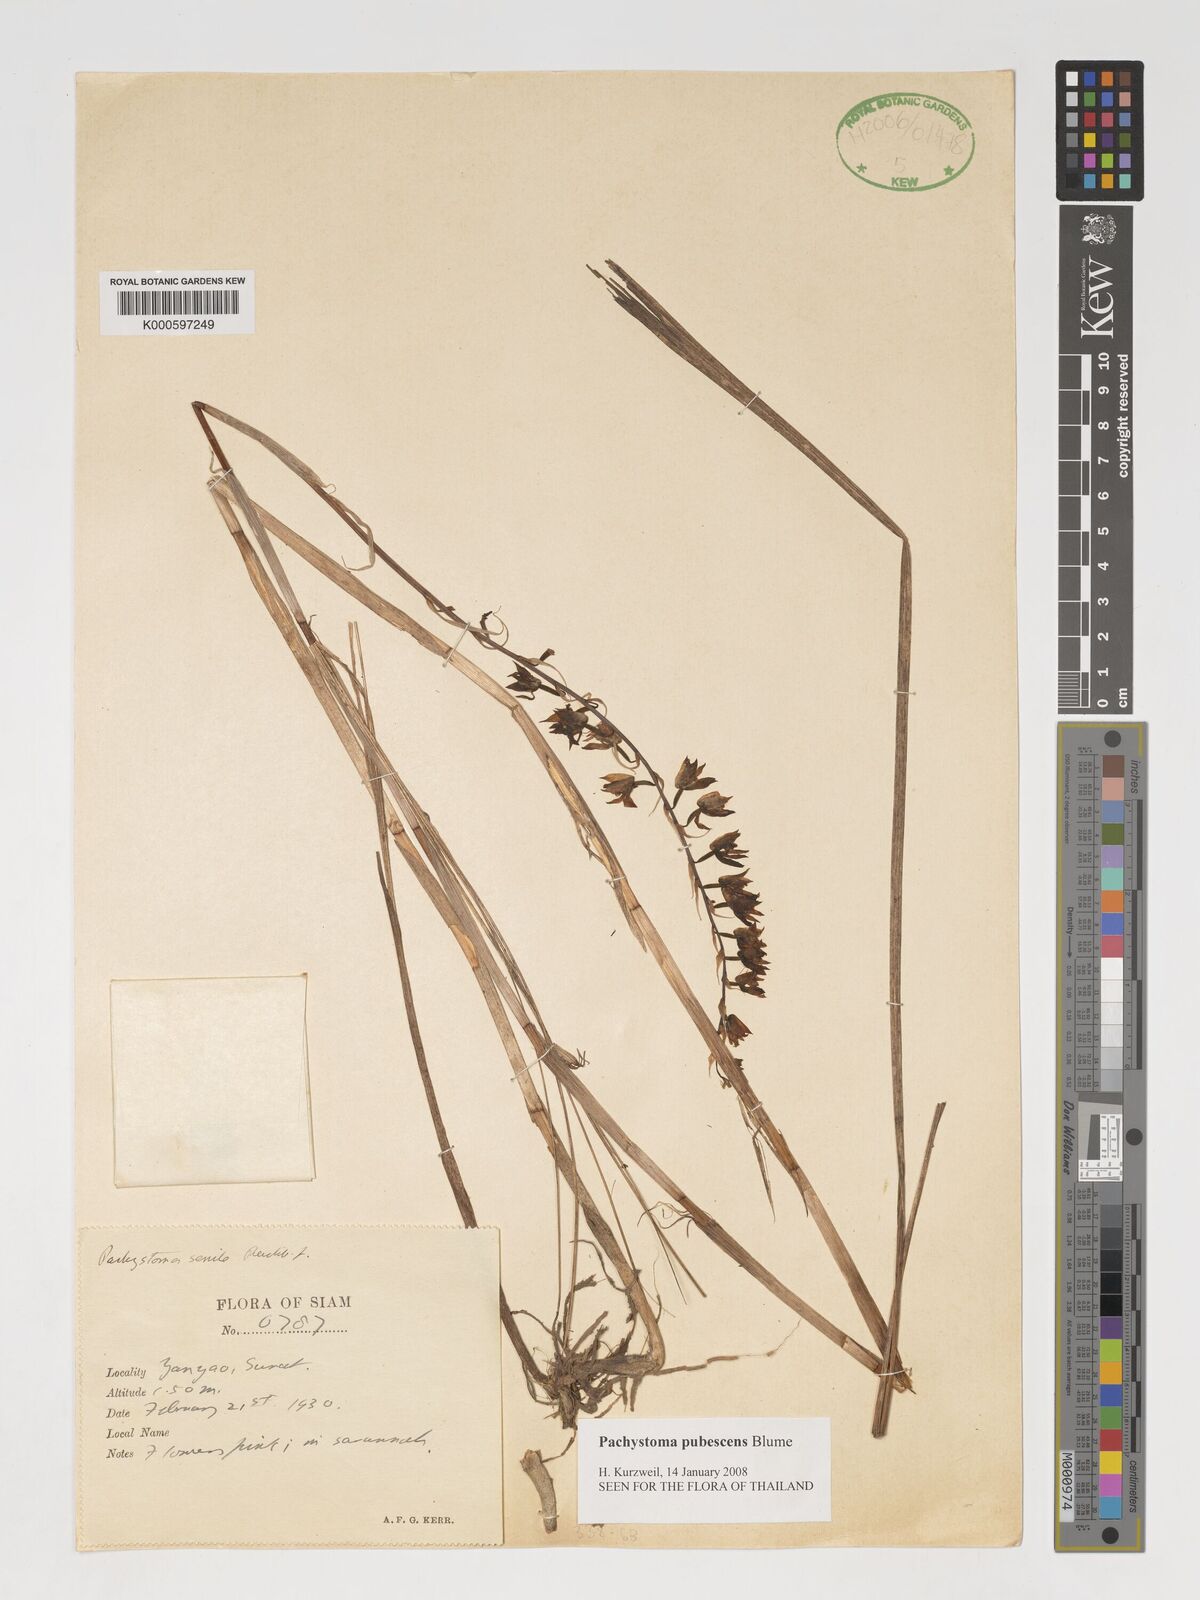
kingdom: Plantae
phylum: Tracheophyta
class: Liliopsida
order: Asparagales
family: Orchidaceae
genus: Pachystoma
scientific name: Pachystoma pubescens
